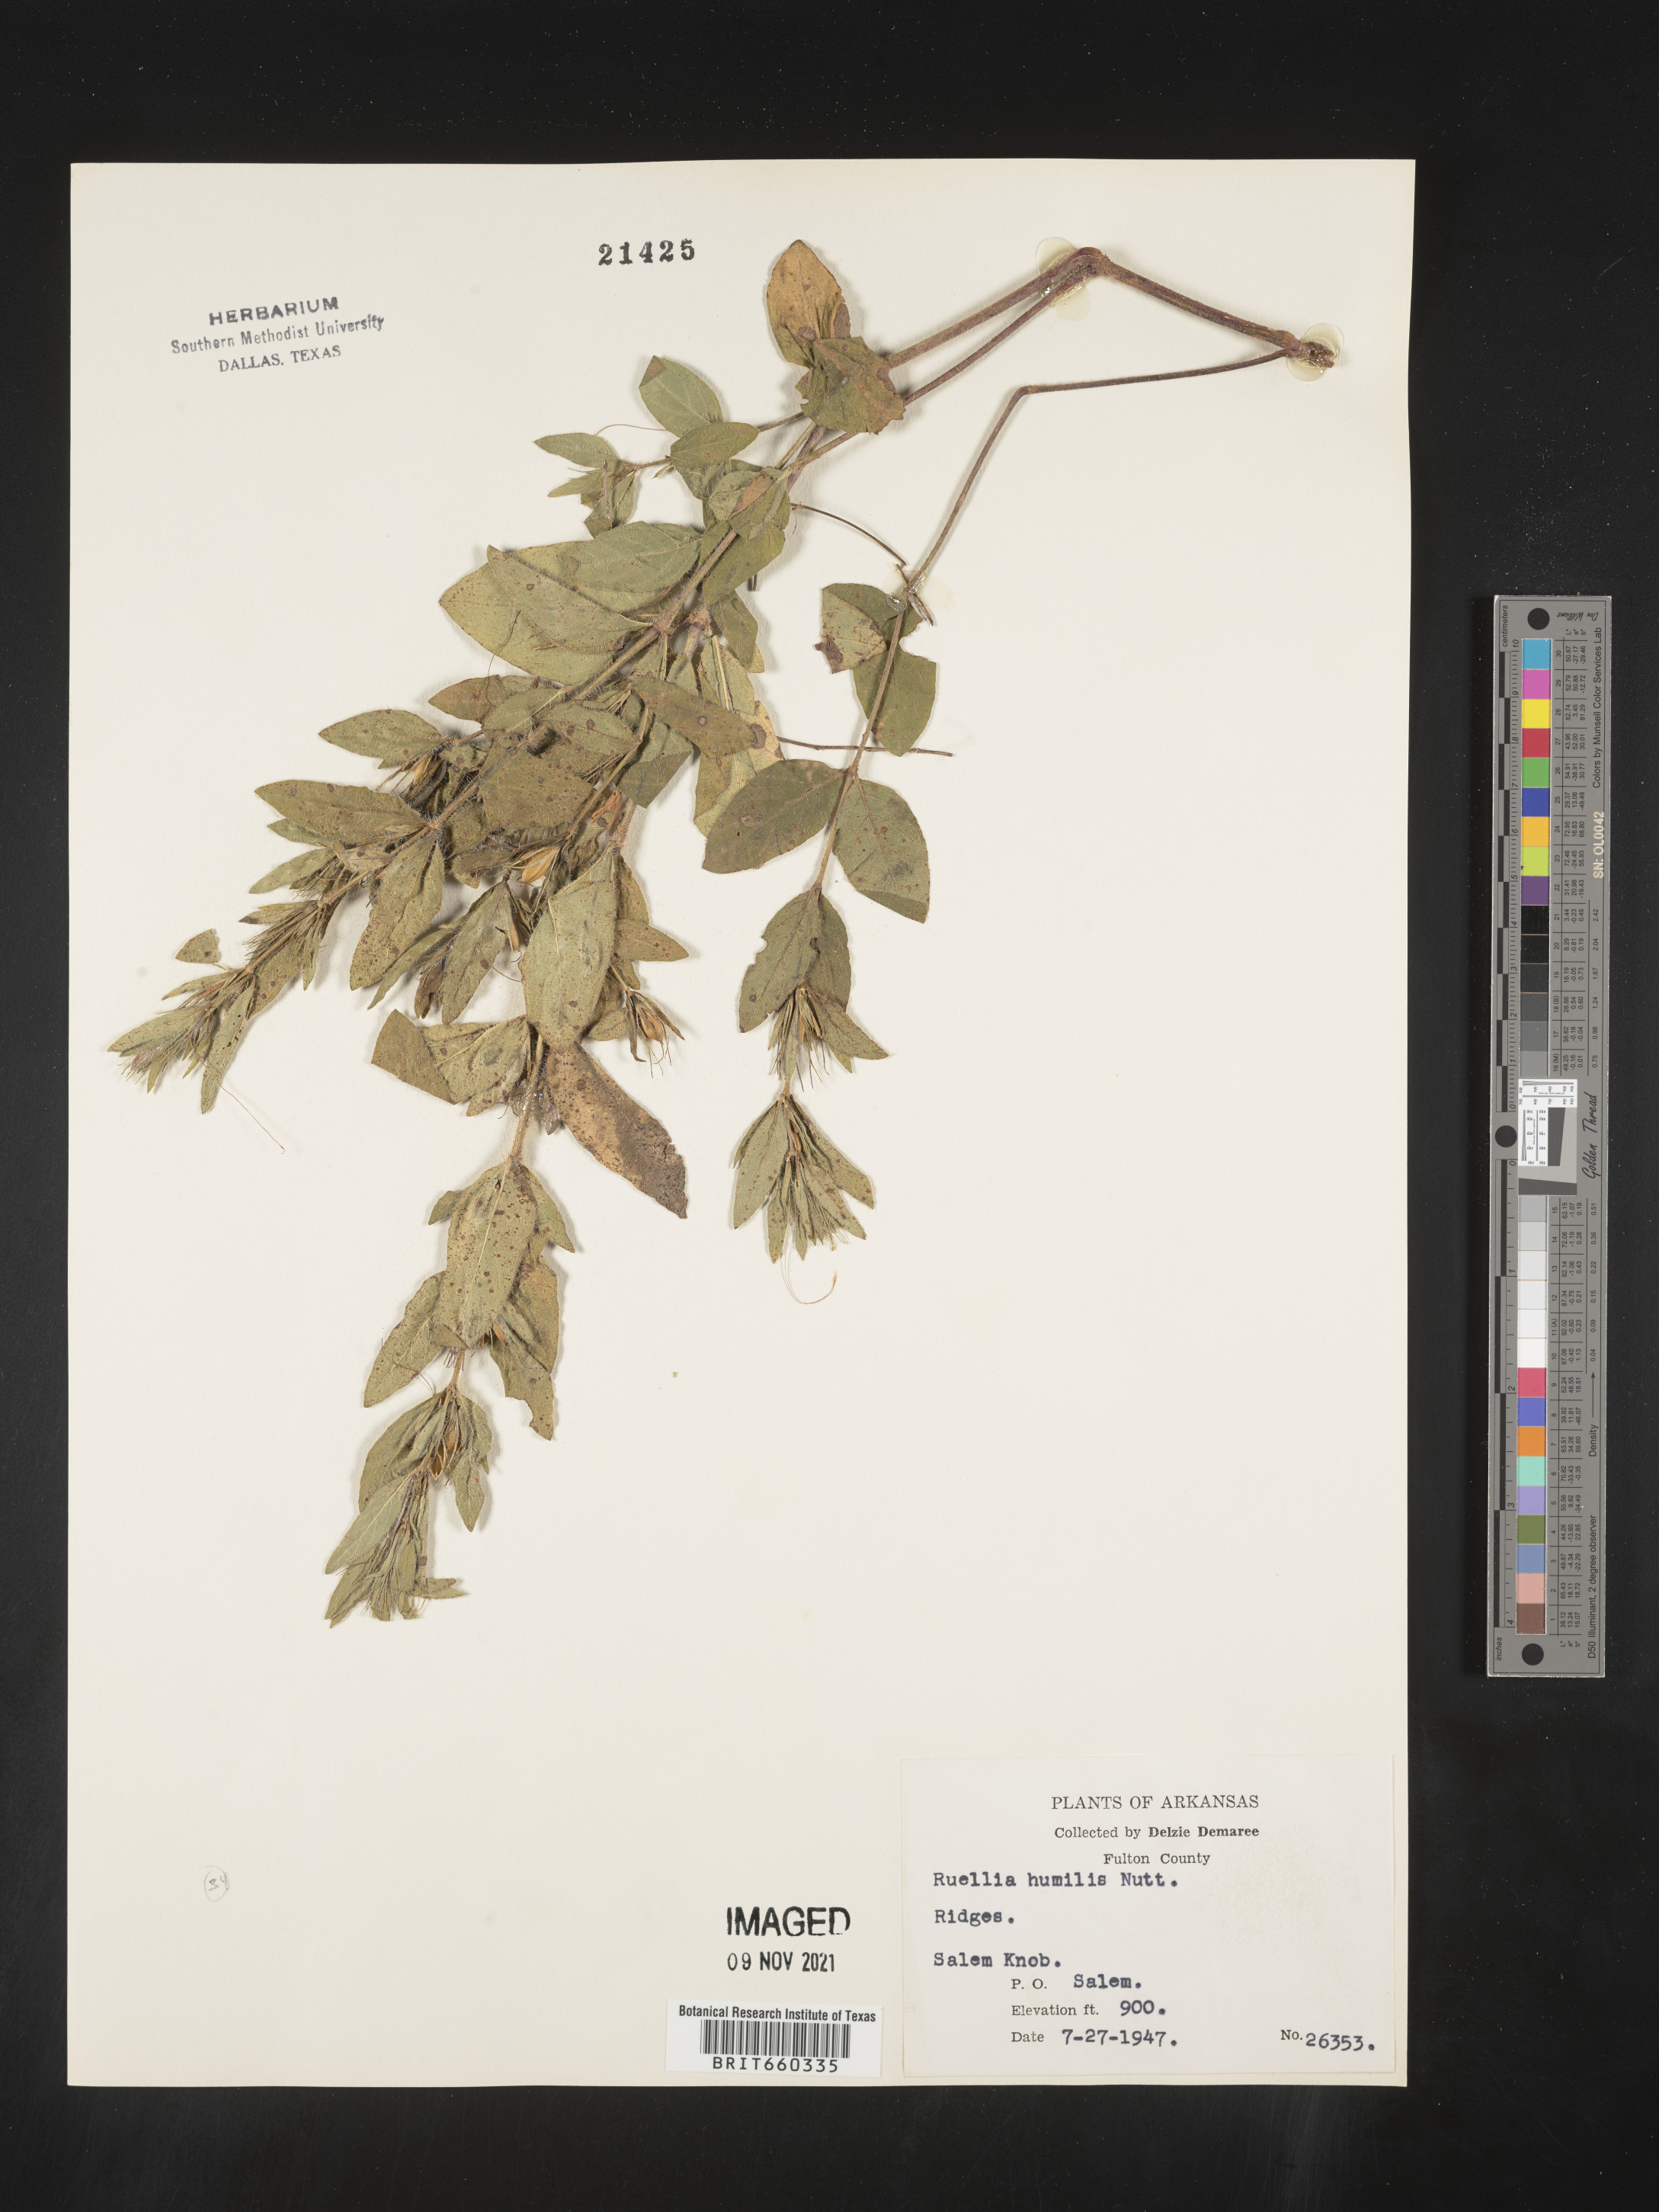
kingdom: Plantae
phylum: Tracheophyta
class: Magnoliopsida
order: Lamiales
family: Acanthaceae
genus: Ruellia
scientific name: Ruellia humilis
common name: Fringe-leaf ruellia
